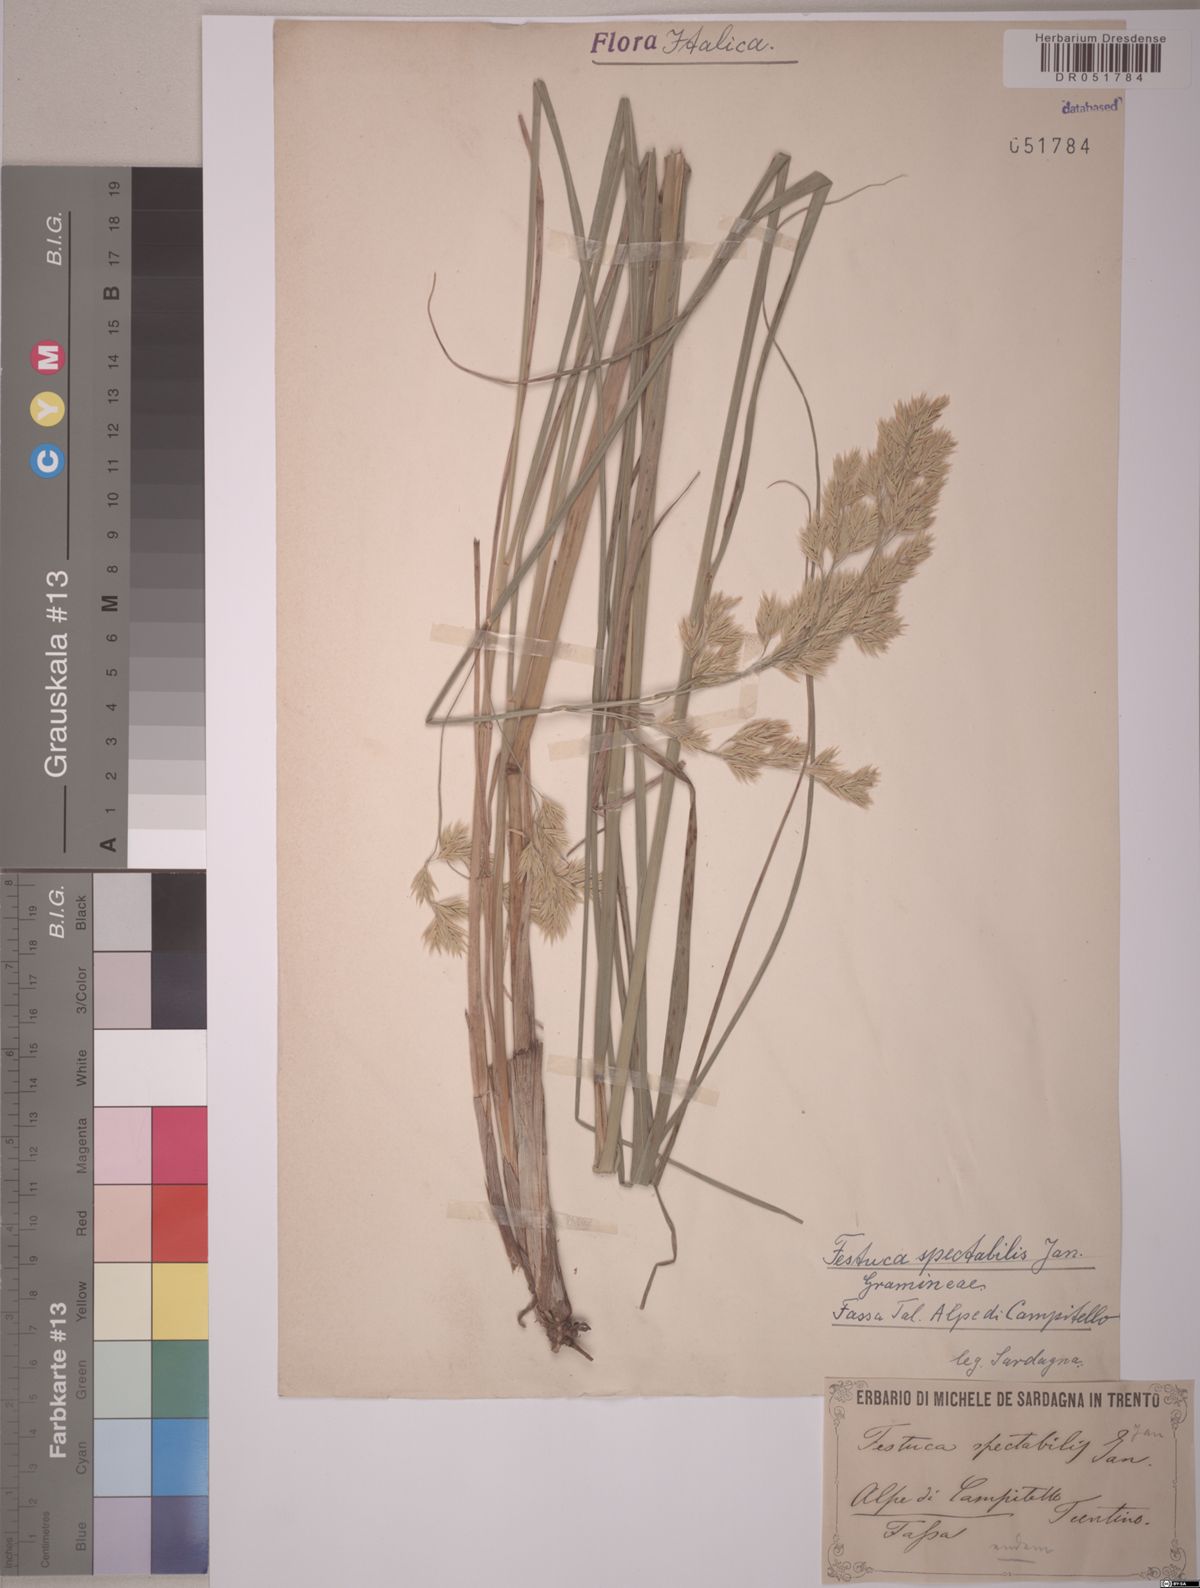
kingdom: Plantae
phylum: Tracheophyta
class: Liliopsida
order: Poales
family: Poaceae
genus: Festuca
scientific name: Festuca spectabilis
